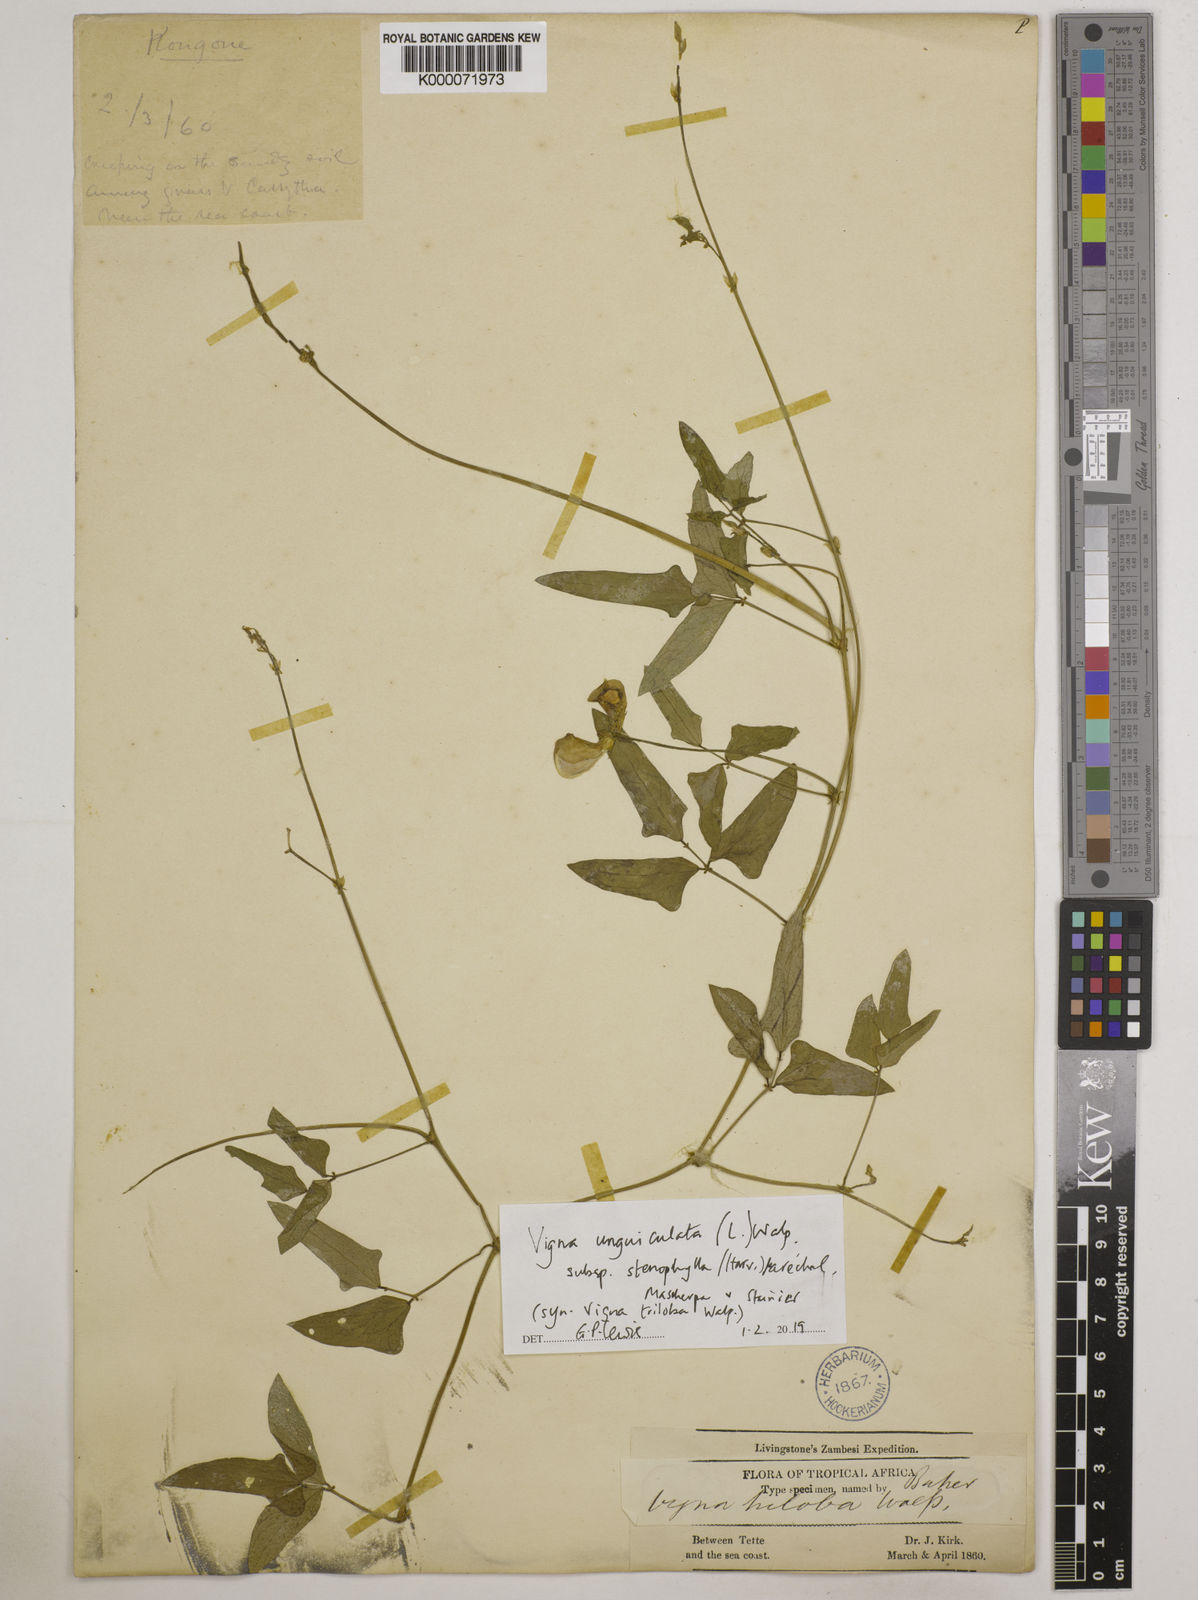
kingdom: Plantae
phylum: Tracheophyta
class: Magnoliopsida
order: Fabales
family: Fabaceae
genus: Vigna
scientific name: Vigna unguiculata
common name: Cowpea
